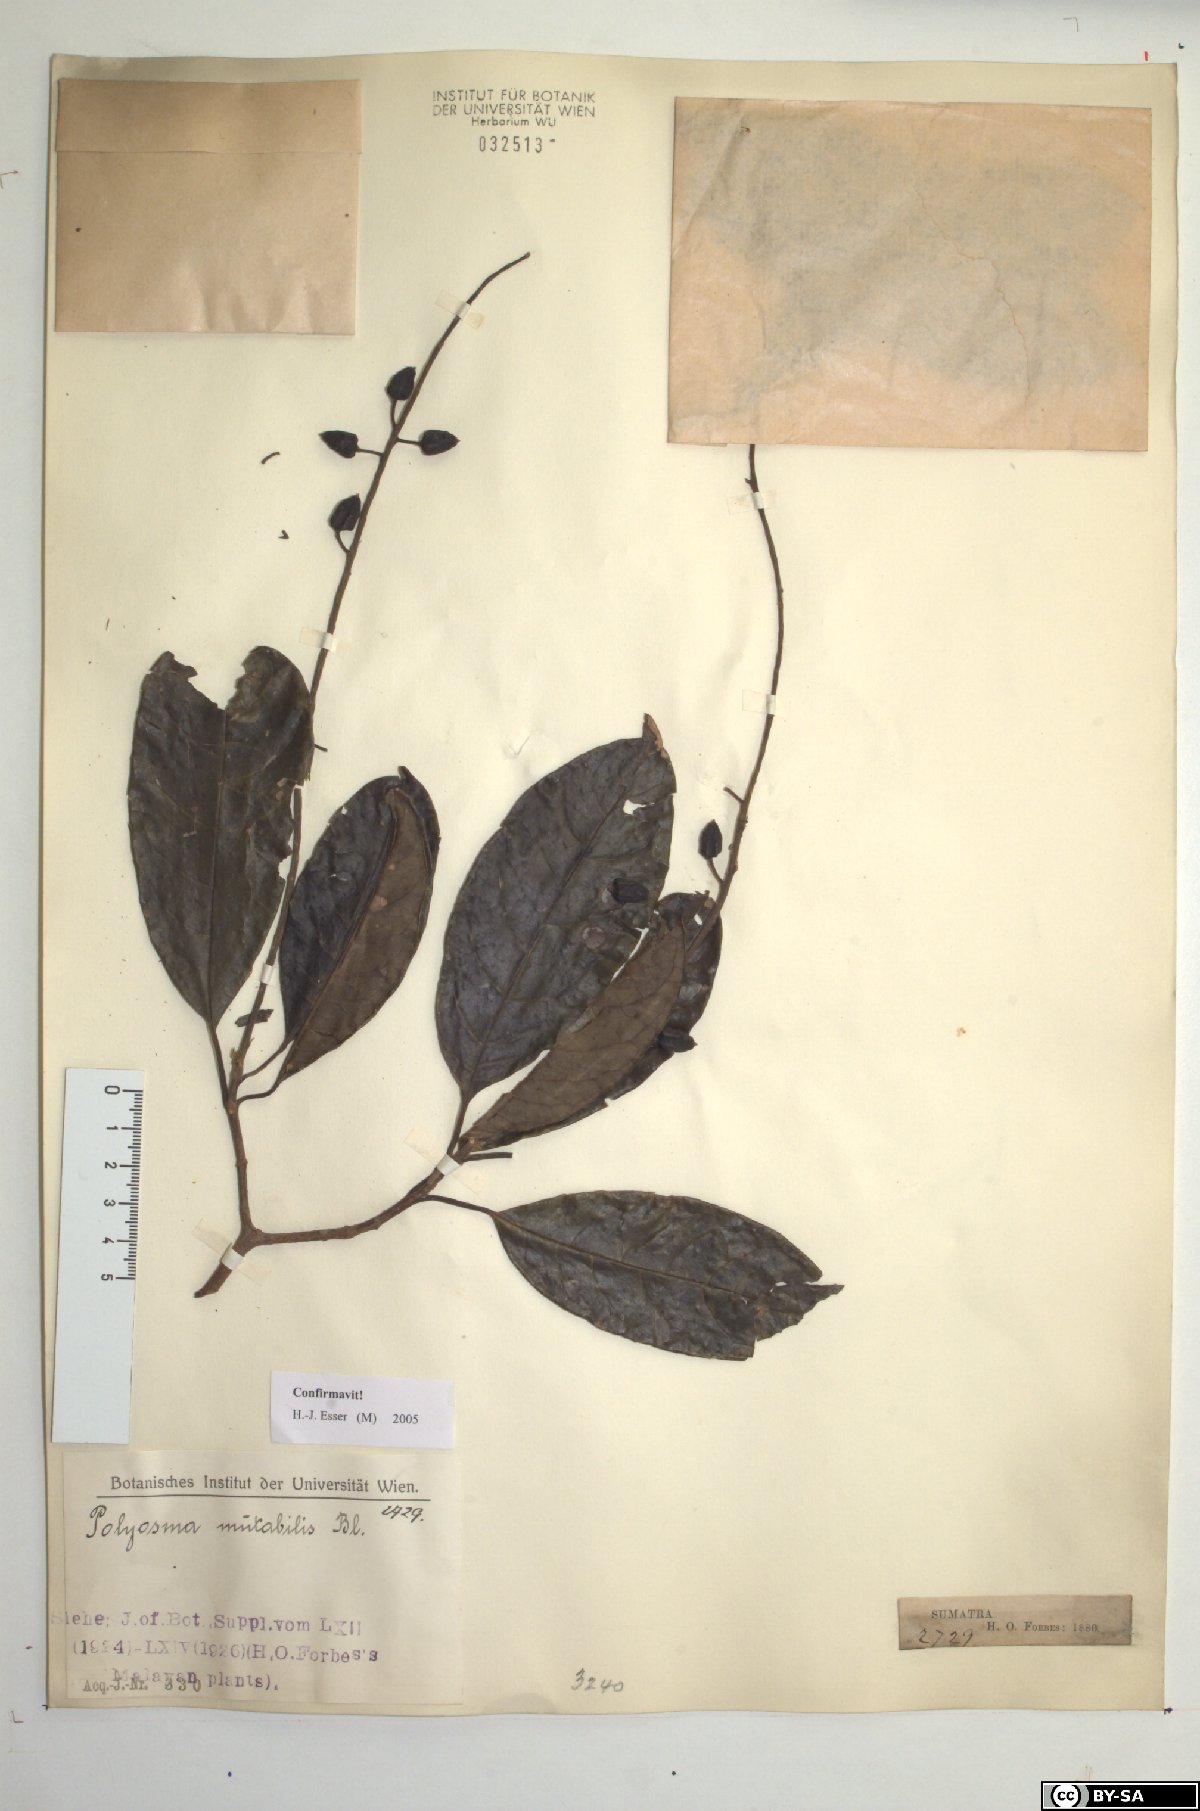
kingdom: Plantae
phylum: Tracheophyta
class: Magnoliopsida
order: Escalloniales
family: Escalloniaceae
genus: Polyosma
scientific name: Polyosma fragrans
